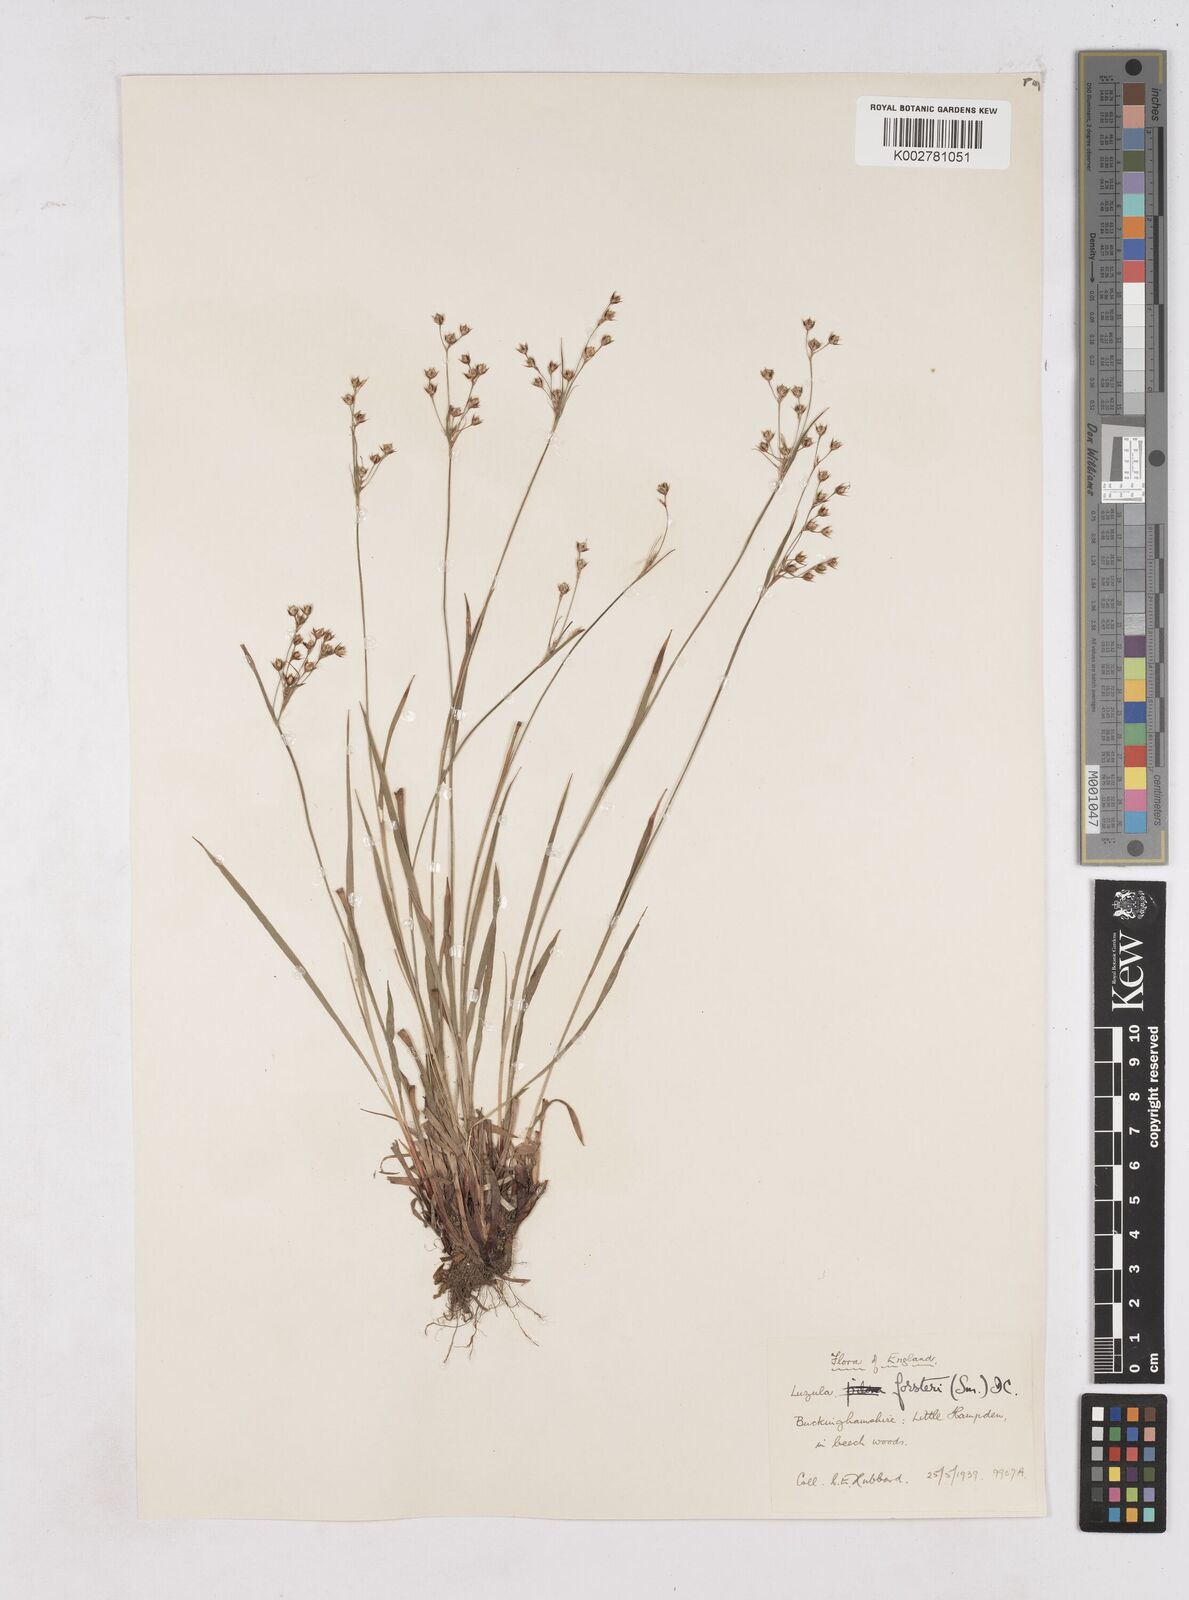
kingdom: Plantae
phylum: Tracheophyta
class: Liliopsida
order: Poales
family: Juncaceae
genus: Luzula
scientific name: Luzula forsteri
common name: Southern wood-rush
